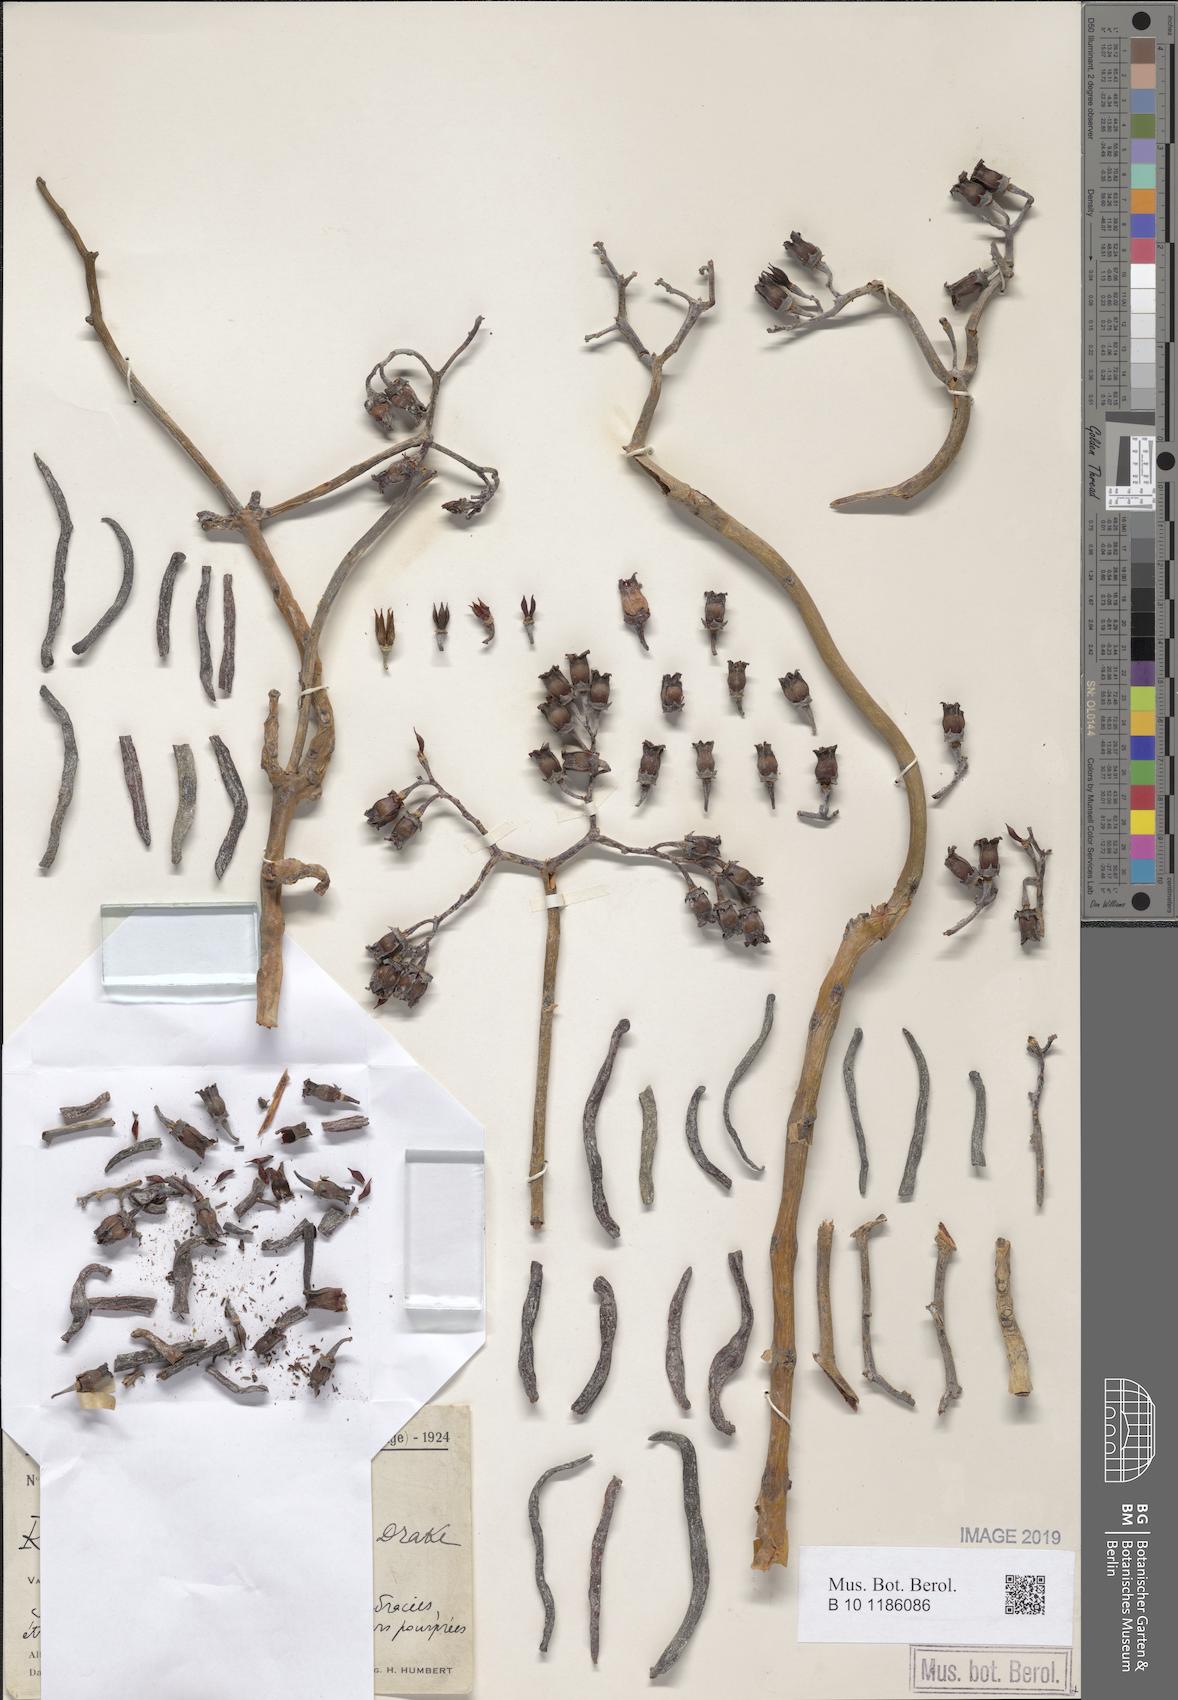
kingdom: Plantae
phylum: Tracheophyta
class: Magnoliopsida
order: Saxifragales
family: Crassulaceae
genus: Kalanchoe
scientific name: Kalanchoe linearifolia
